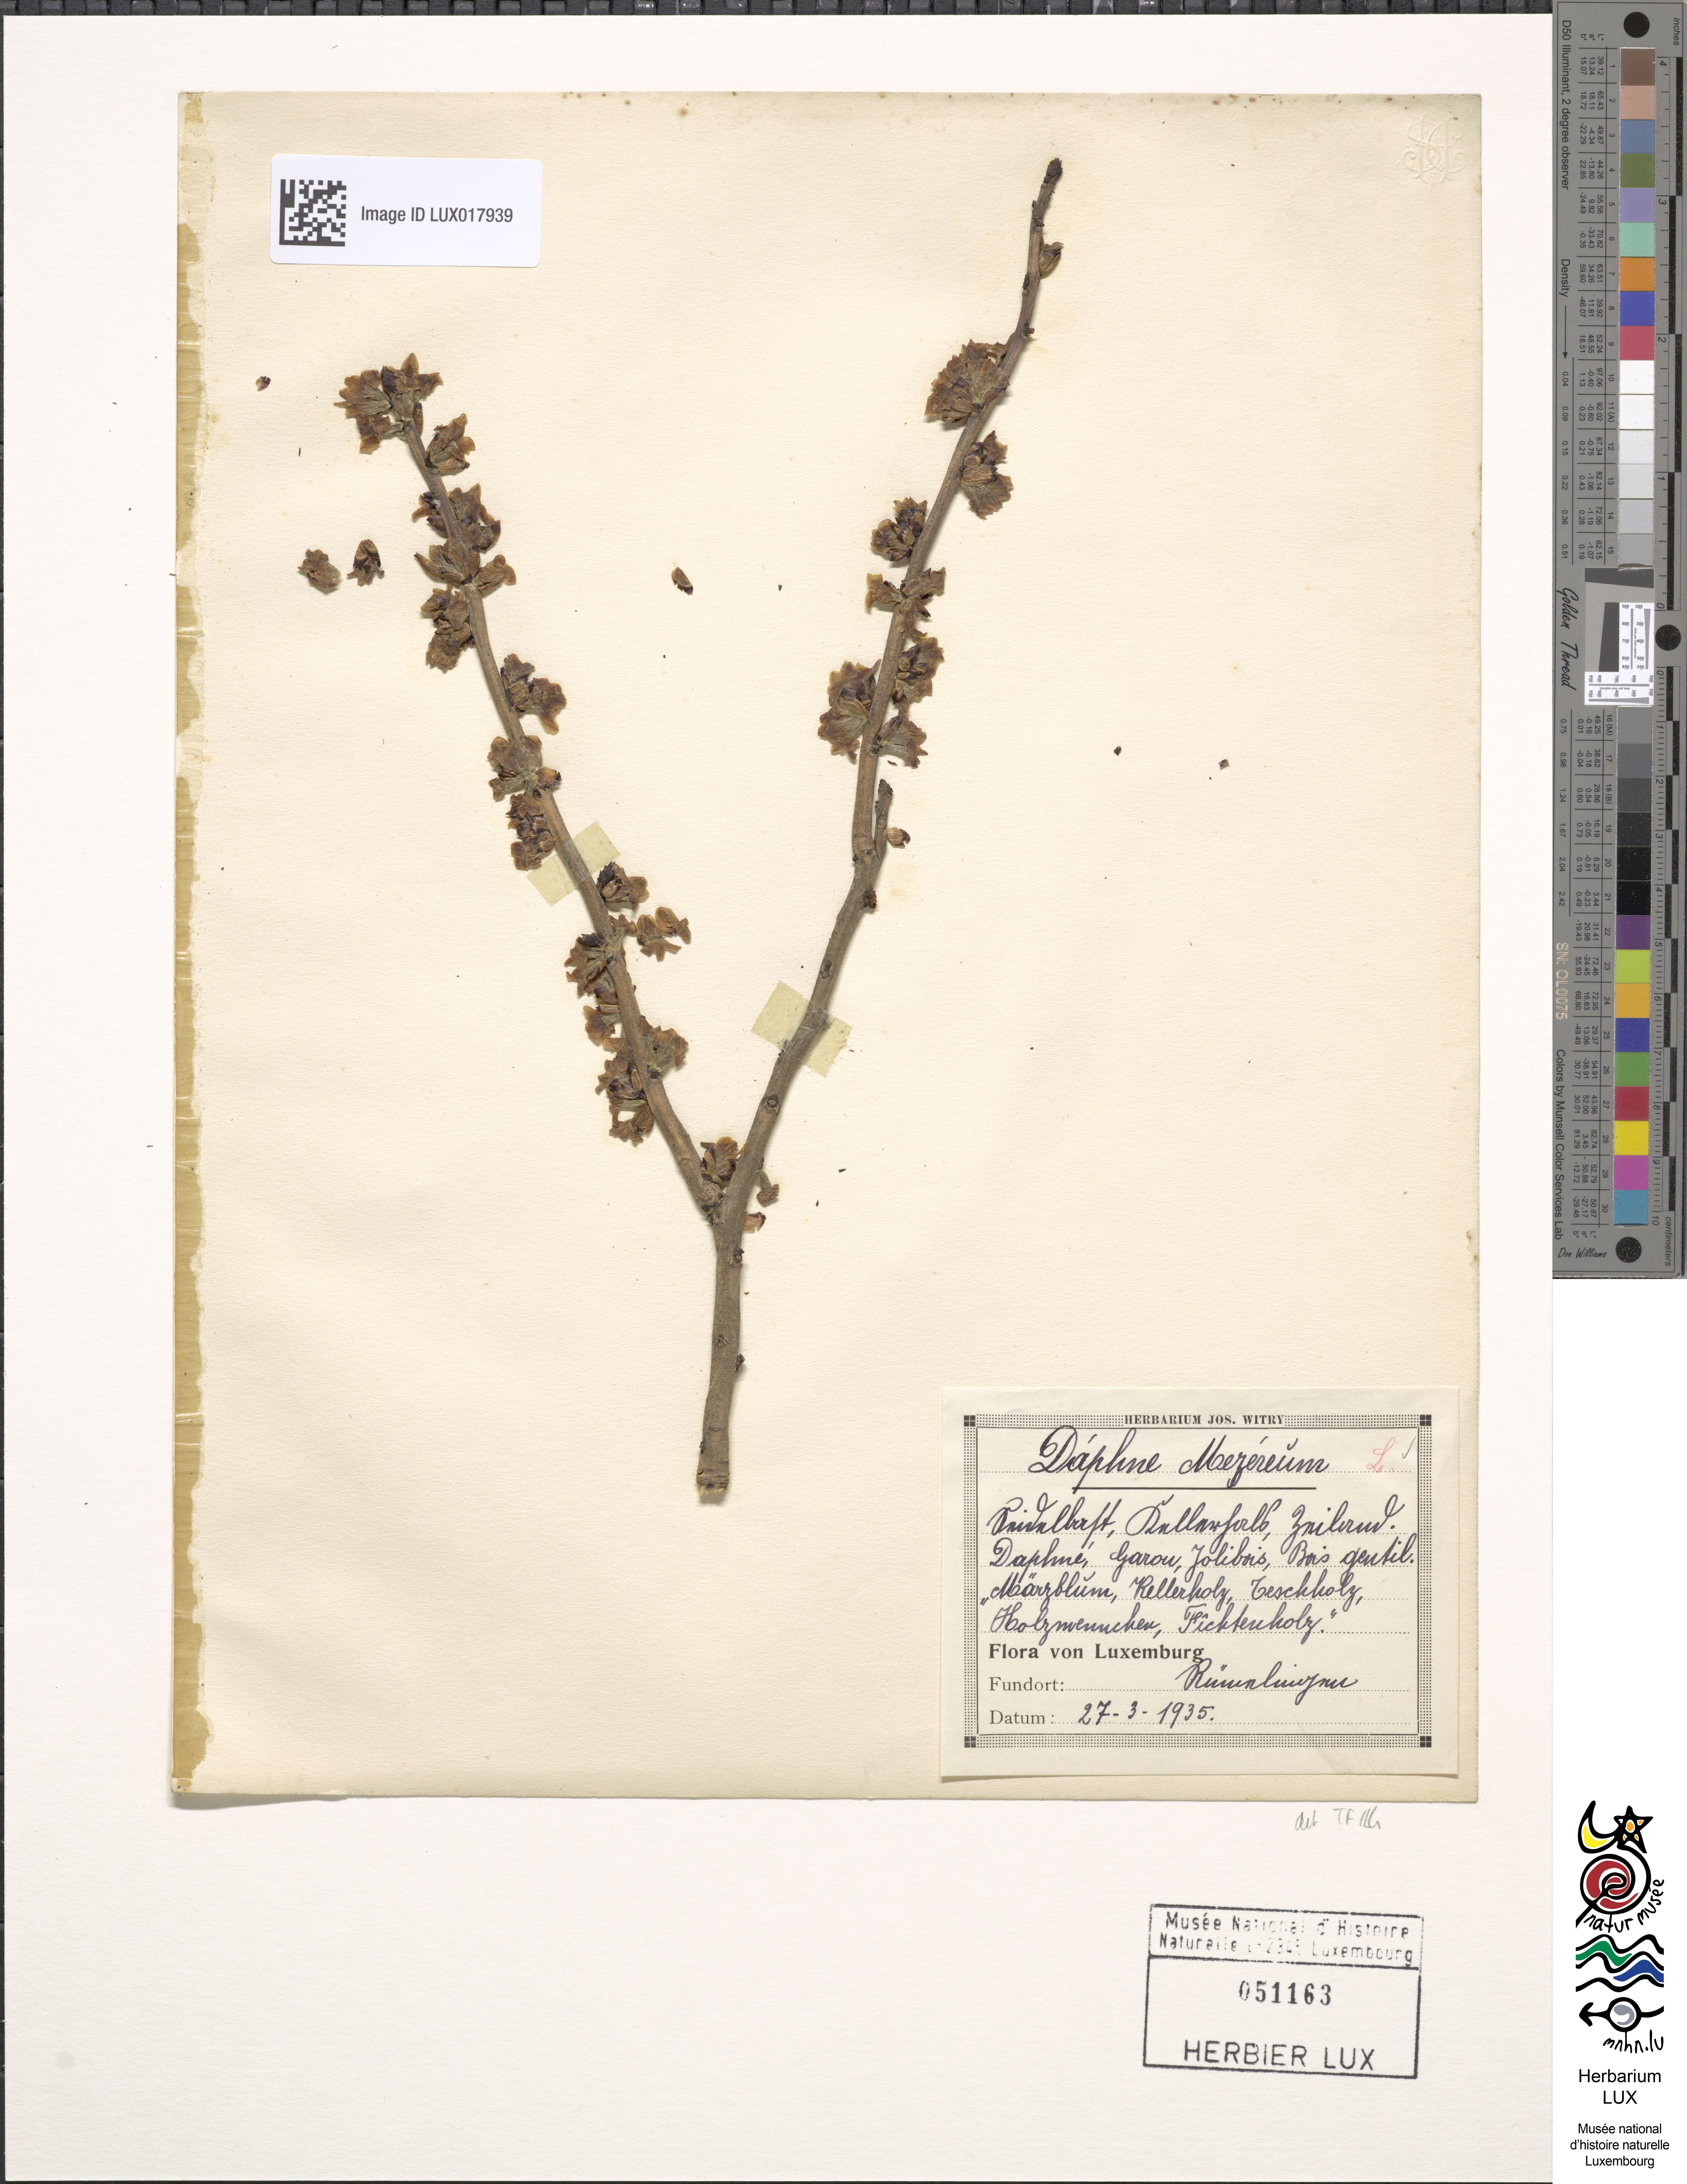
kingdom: Plantae
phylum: Tracheophyta
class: Magnoliopsida
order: Malvales
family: Thymelaeaceae
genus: Daphne
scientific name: Daphne mezereum
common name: Mezereon
